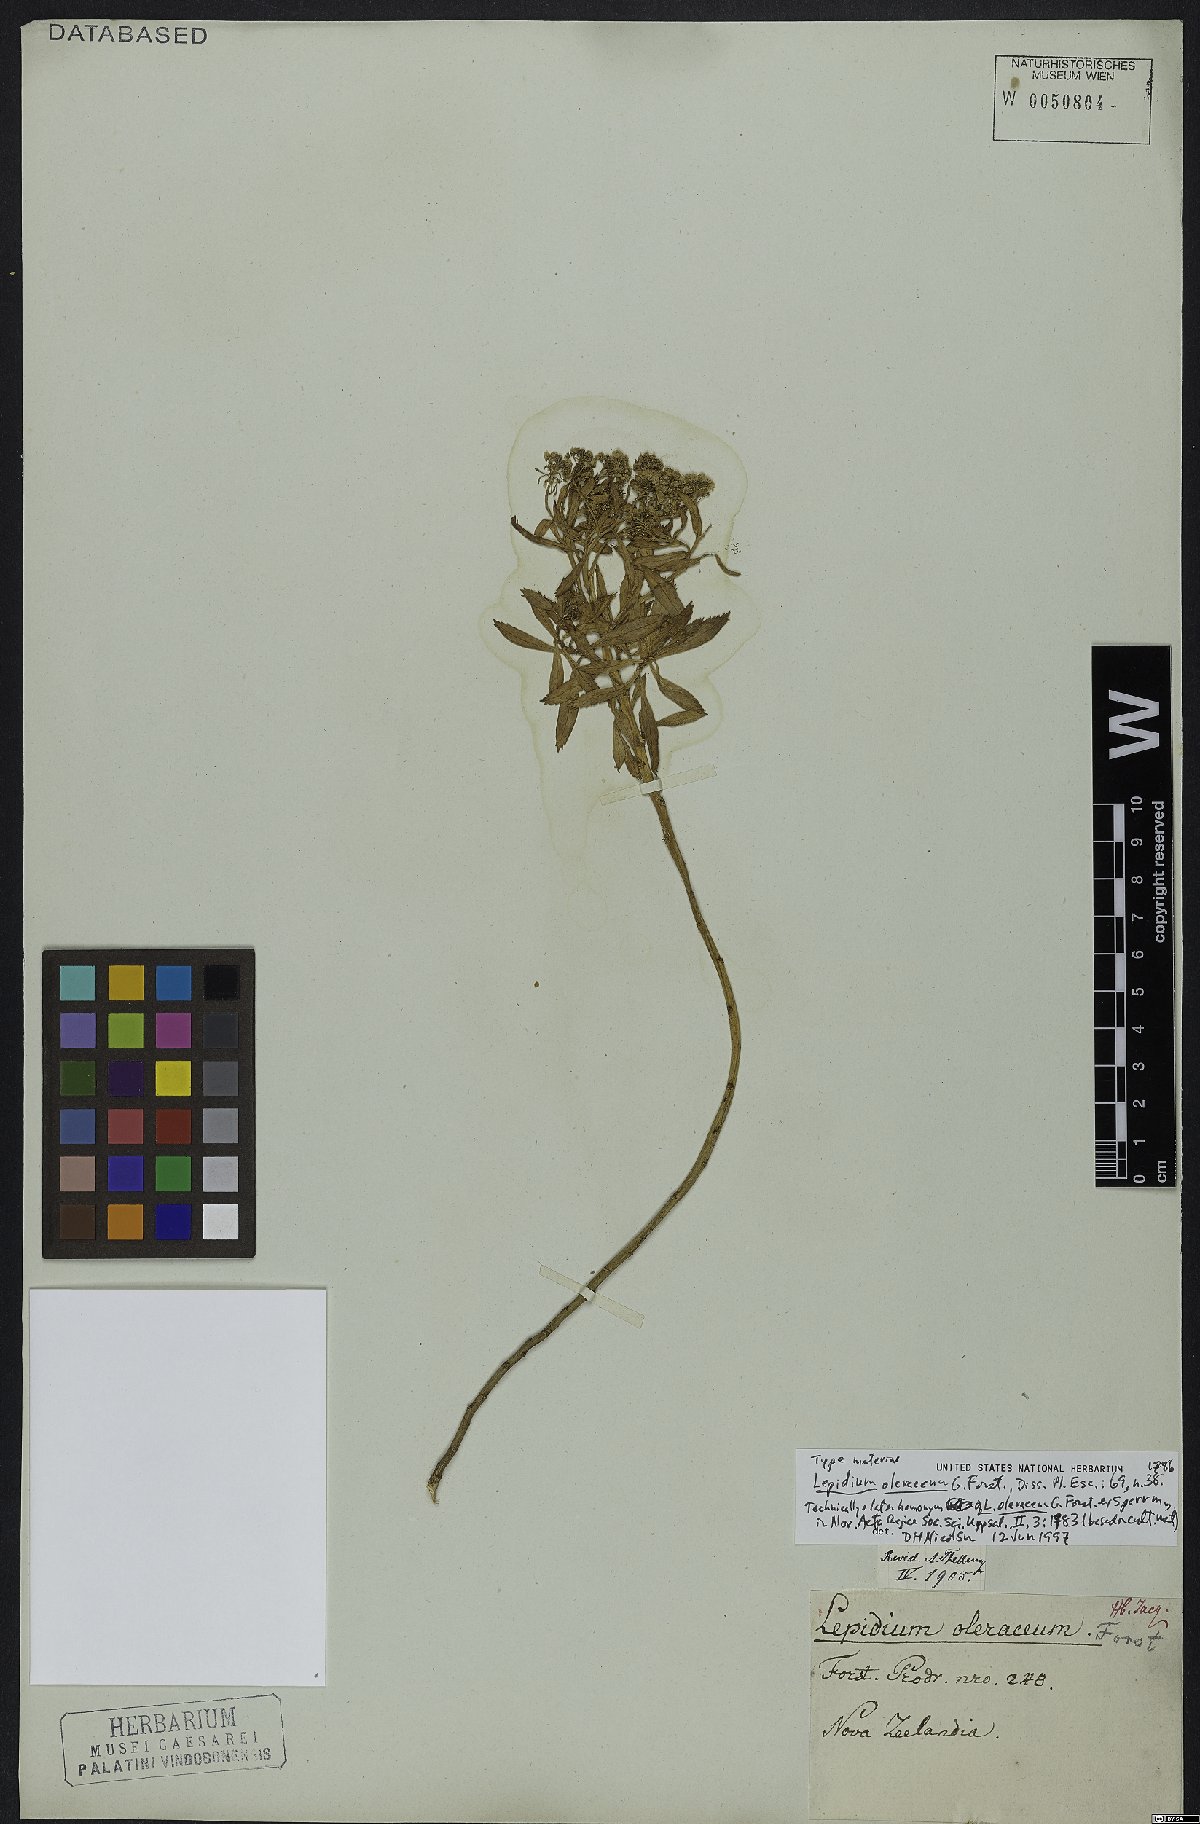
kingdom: Plantae
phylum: Tracheophyta
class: Magnoliopsida
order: Brassicales
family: Brassicaceae
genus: Lepidium
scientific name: Lepidium oleraceum
